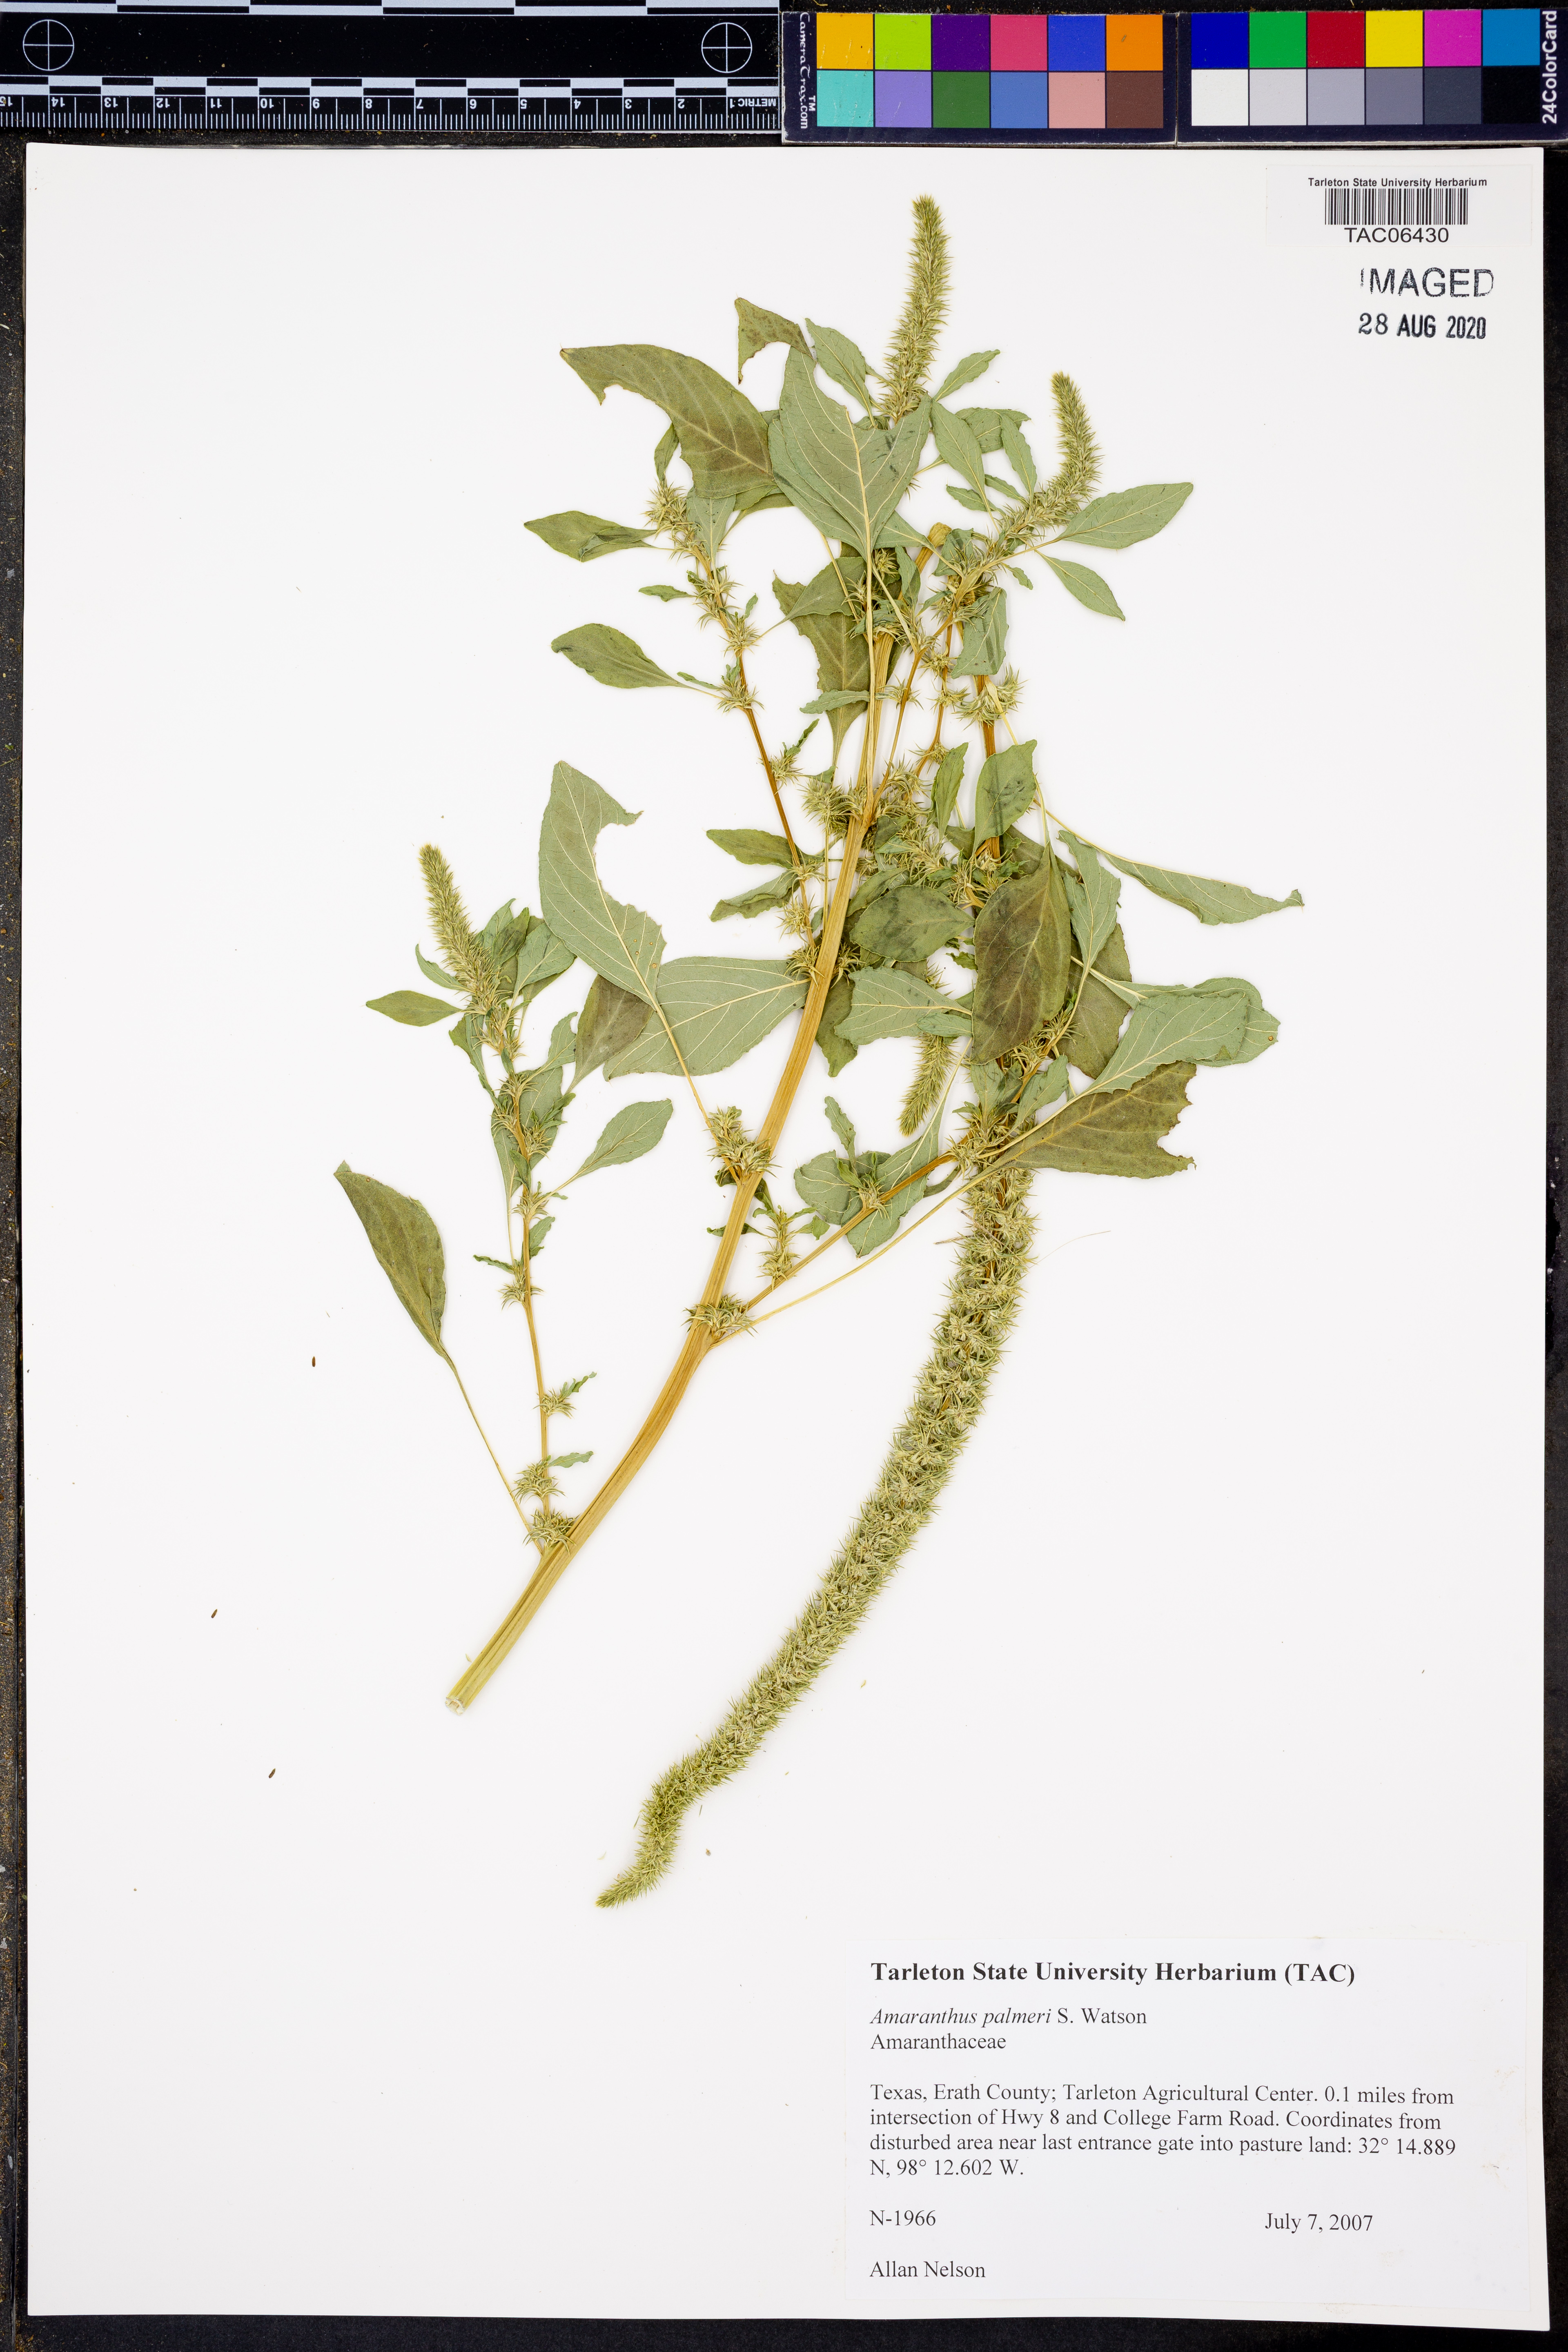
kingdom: Plantae
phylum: Tracheophyta
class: Magnoliopsida
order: Caryophyllales
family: Amaranthaceae
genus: Amaranthus
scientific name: Amaranthus palmeri
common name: Dioecious amaranth
